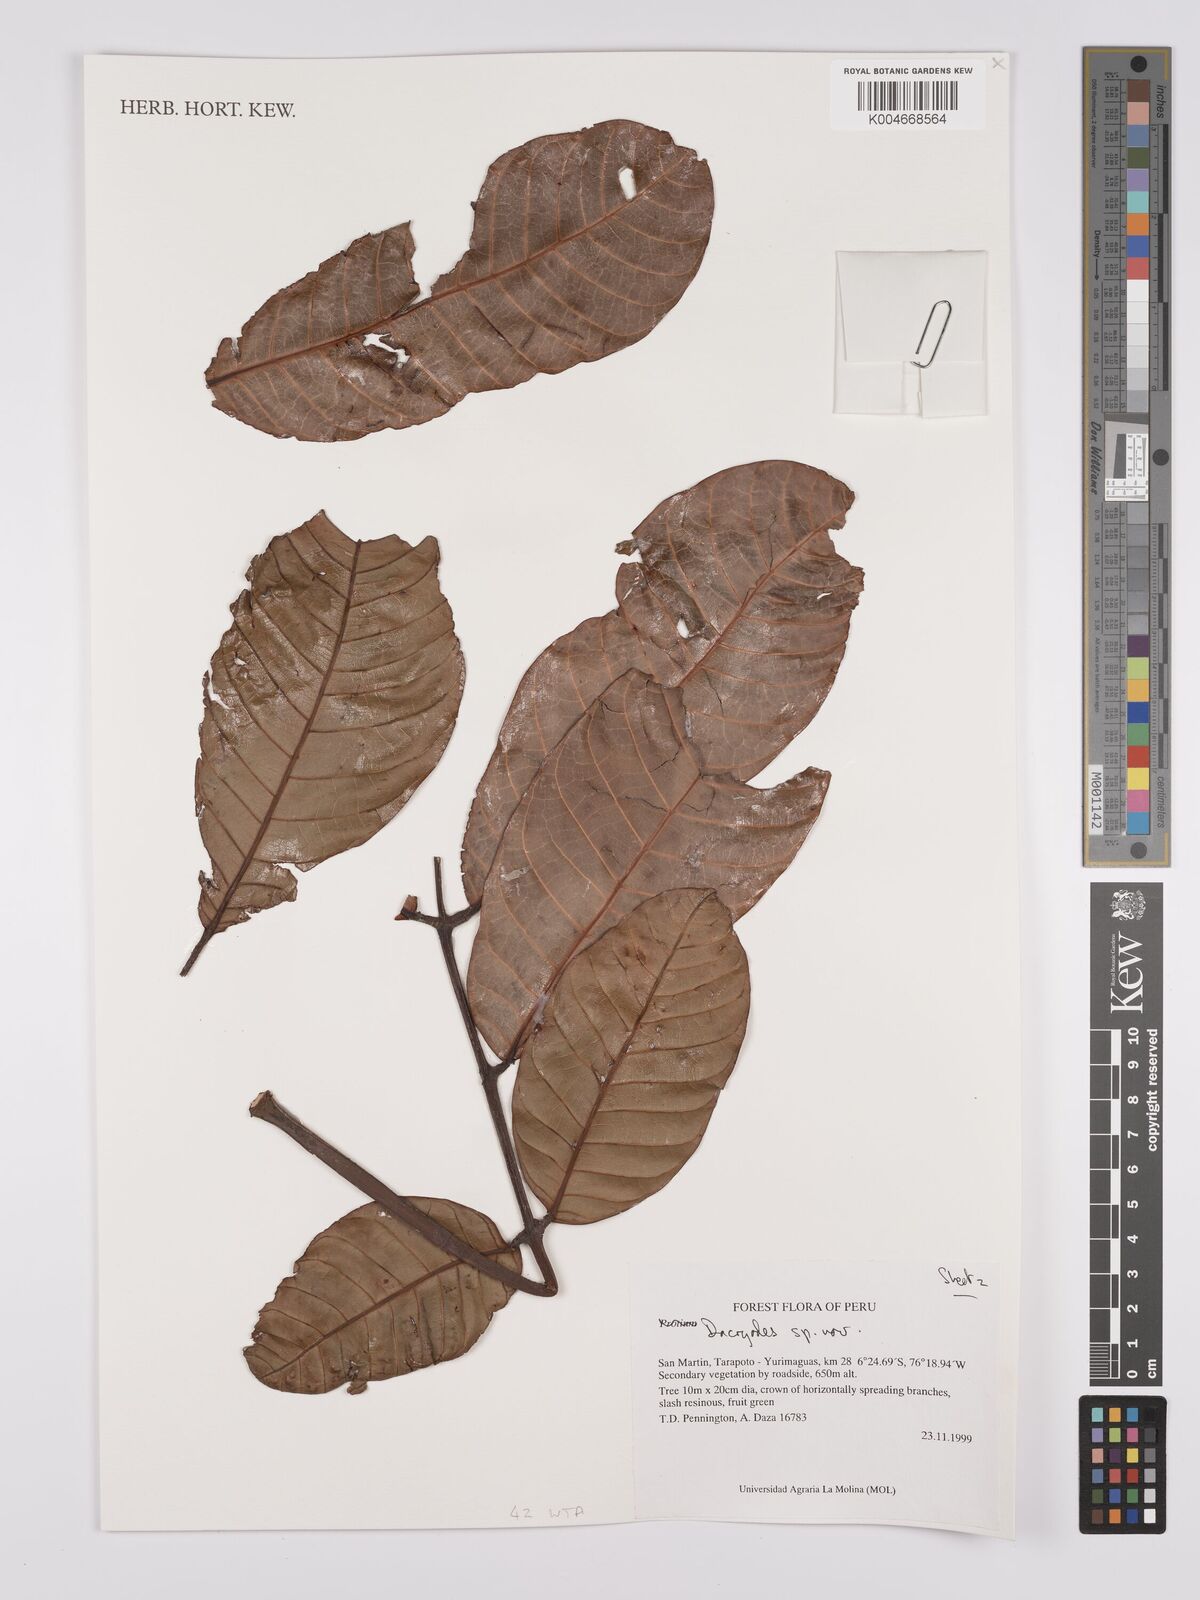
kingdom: Plantae
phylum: Tracheophyta
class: Magnoliopsida
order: Sapindales
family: Burseraceae
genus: Dacryodes
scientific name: Dacryodes
